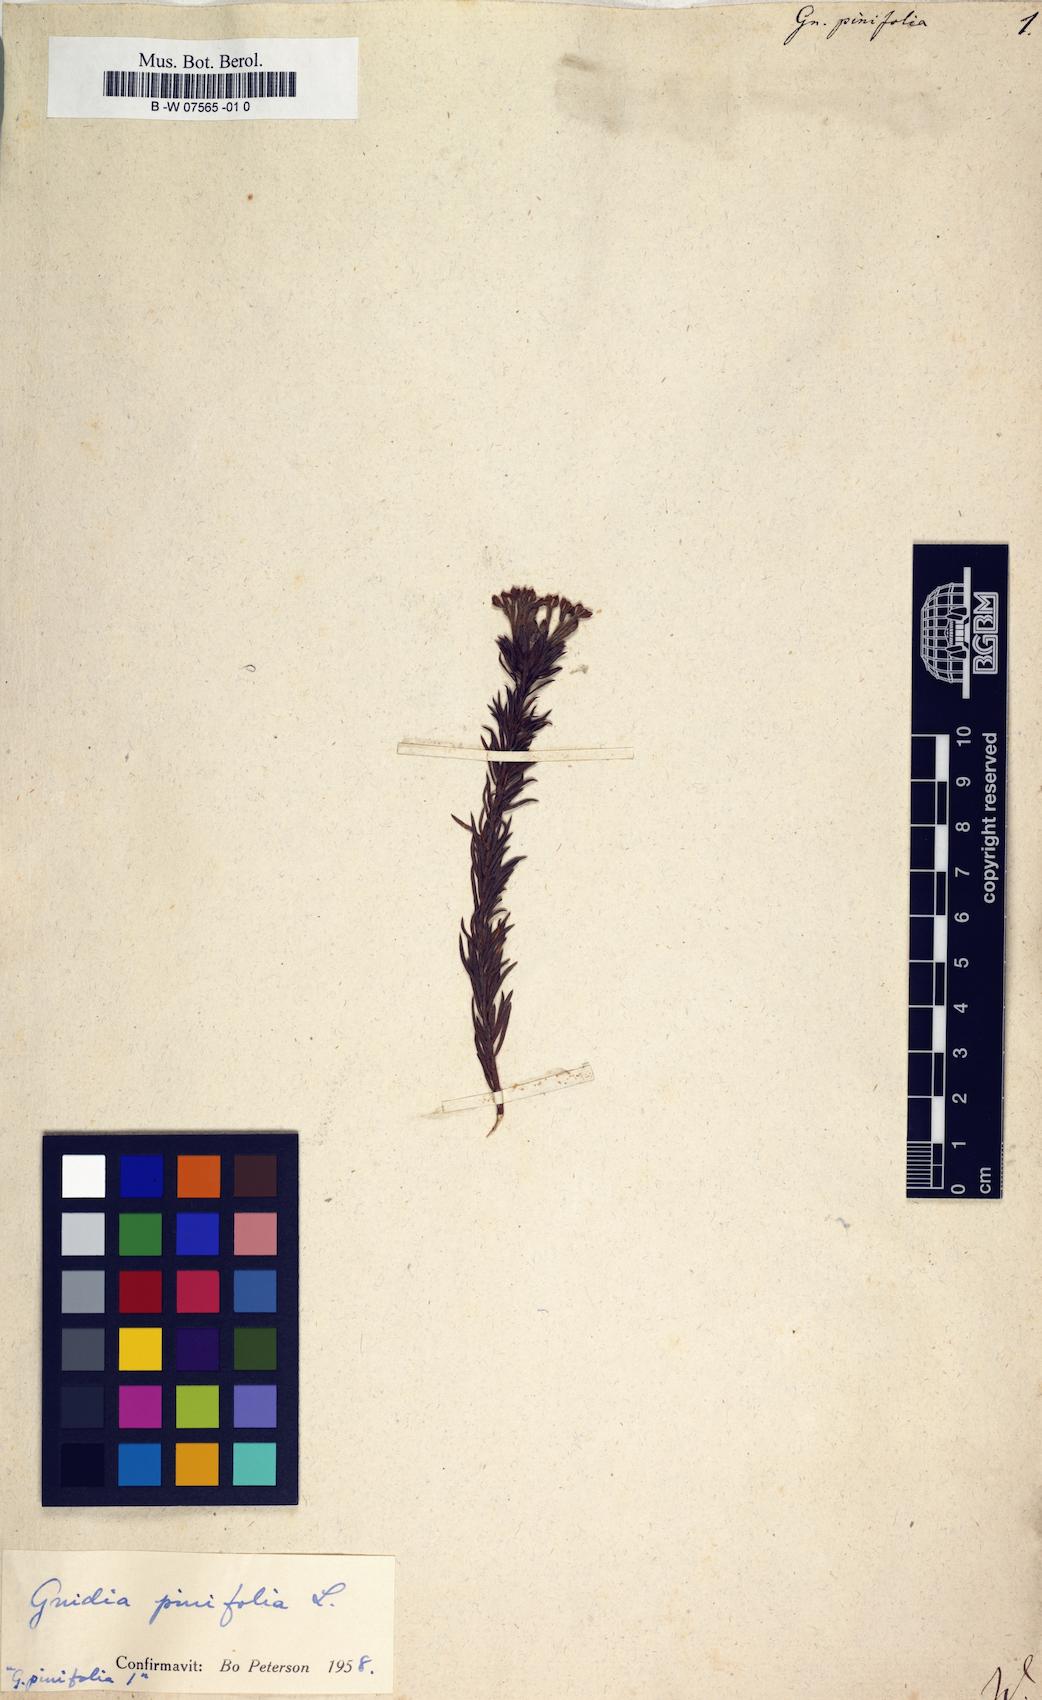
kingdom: Plantae
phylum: Tracheophyta
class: Magnoliopsida
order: Malvales
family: Thymelaeaceae
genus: Gnidia
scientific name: Gnidia pinifolia
